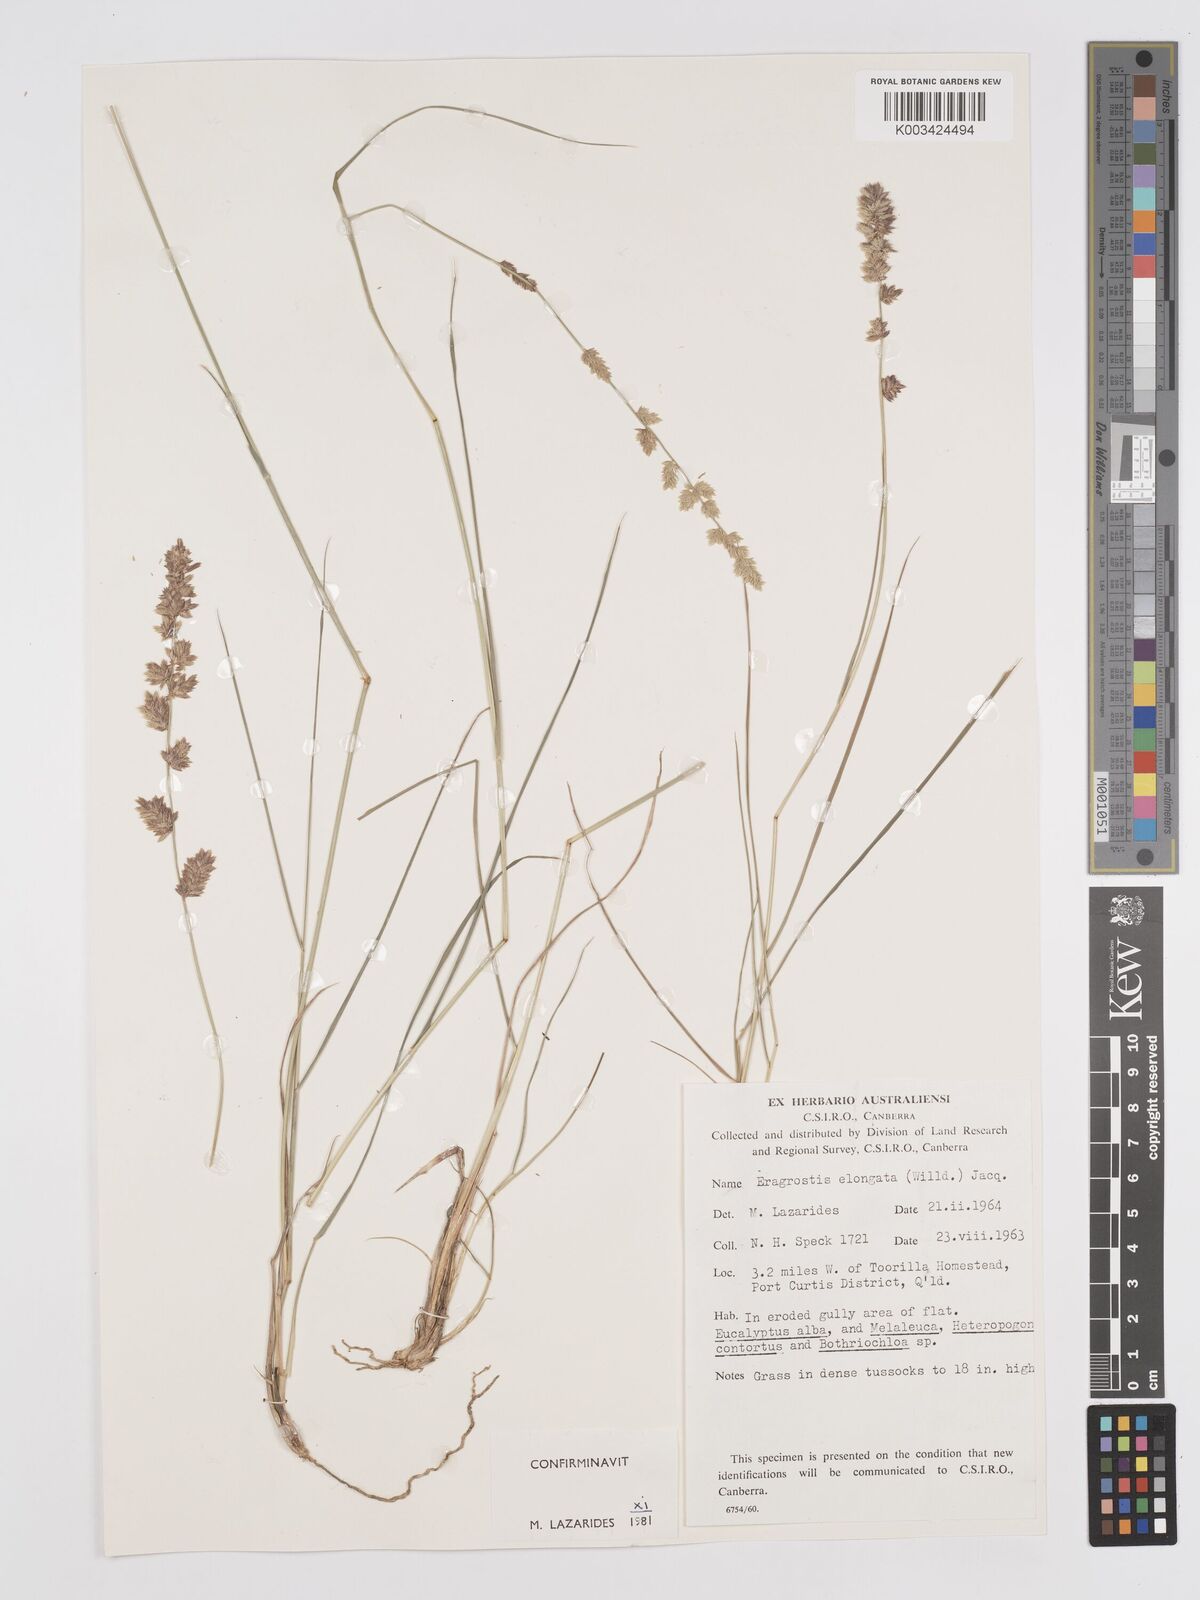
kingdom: Plantae
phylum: Tracheophyta
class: Liliopsida
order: Poales
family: Poaceae
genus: Eragrostis
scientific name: Eragrostis elongata
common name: Long lovegrass
